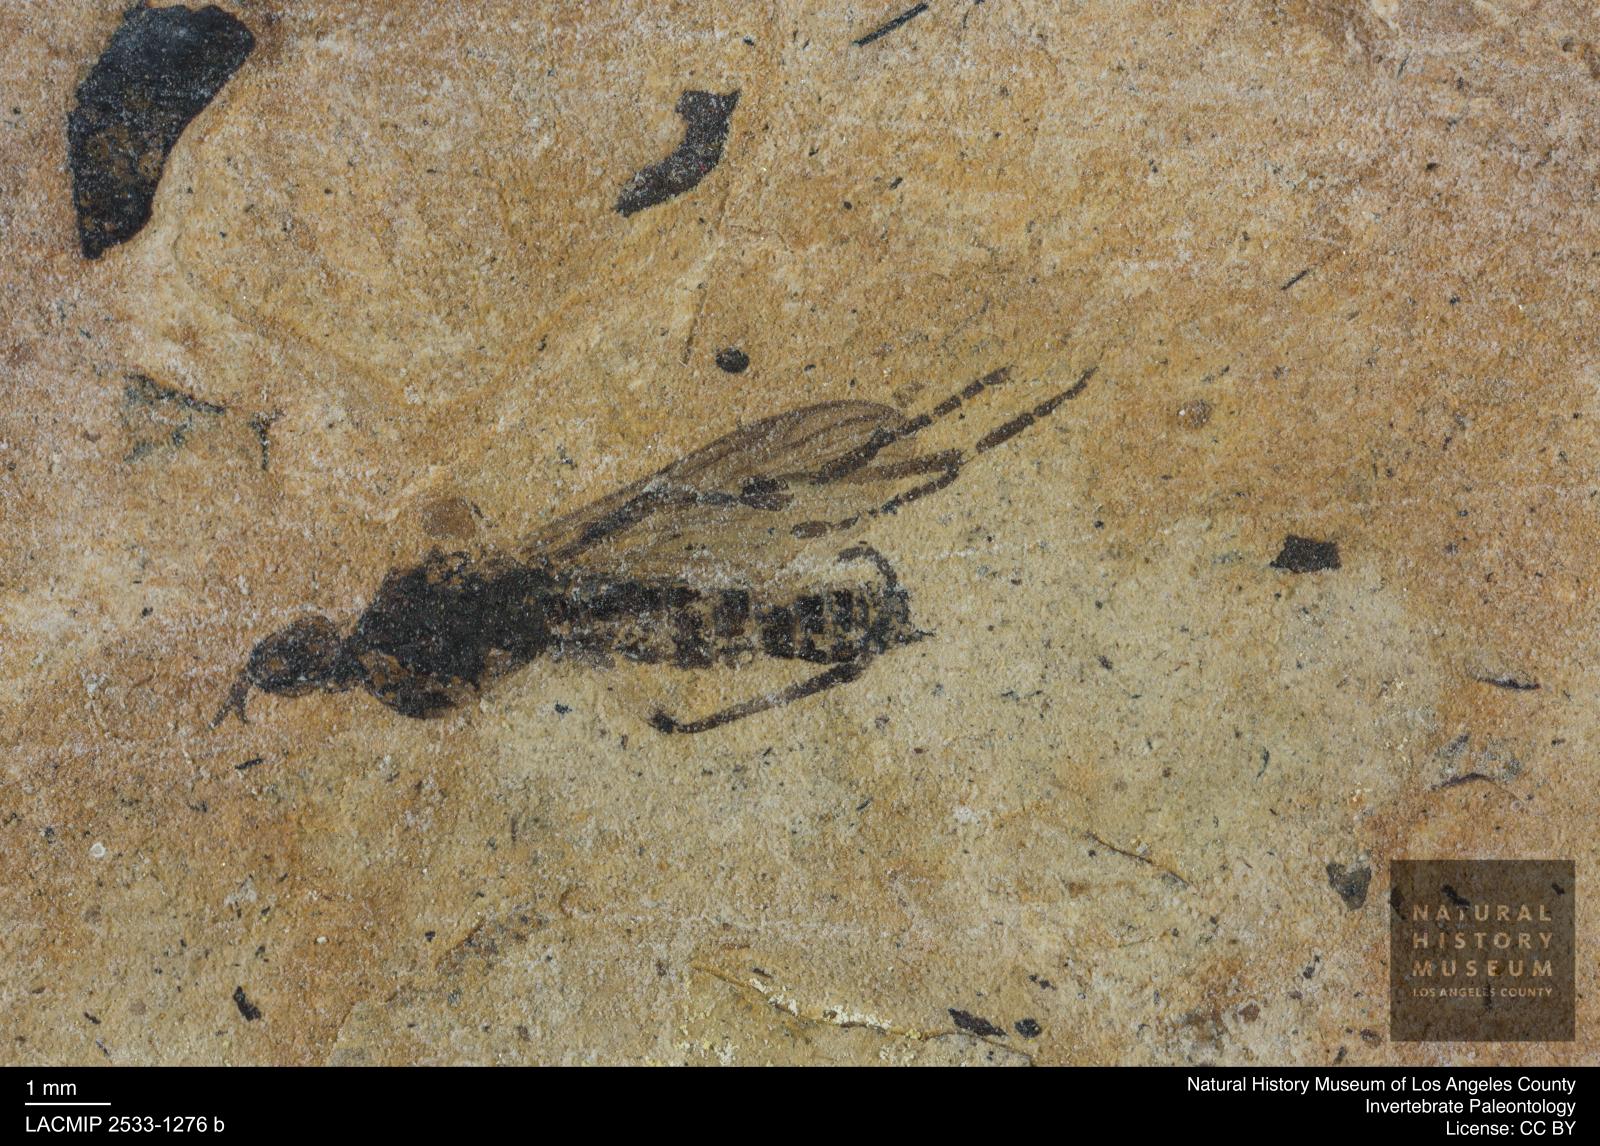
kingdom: Animalia
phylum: Arthropoda
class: Insecta
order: Diptera
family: Bibionidae
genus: Plecia
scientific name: Plecia
